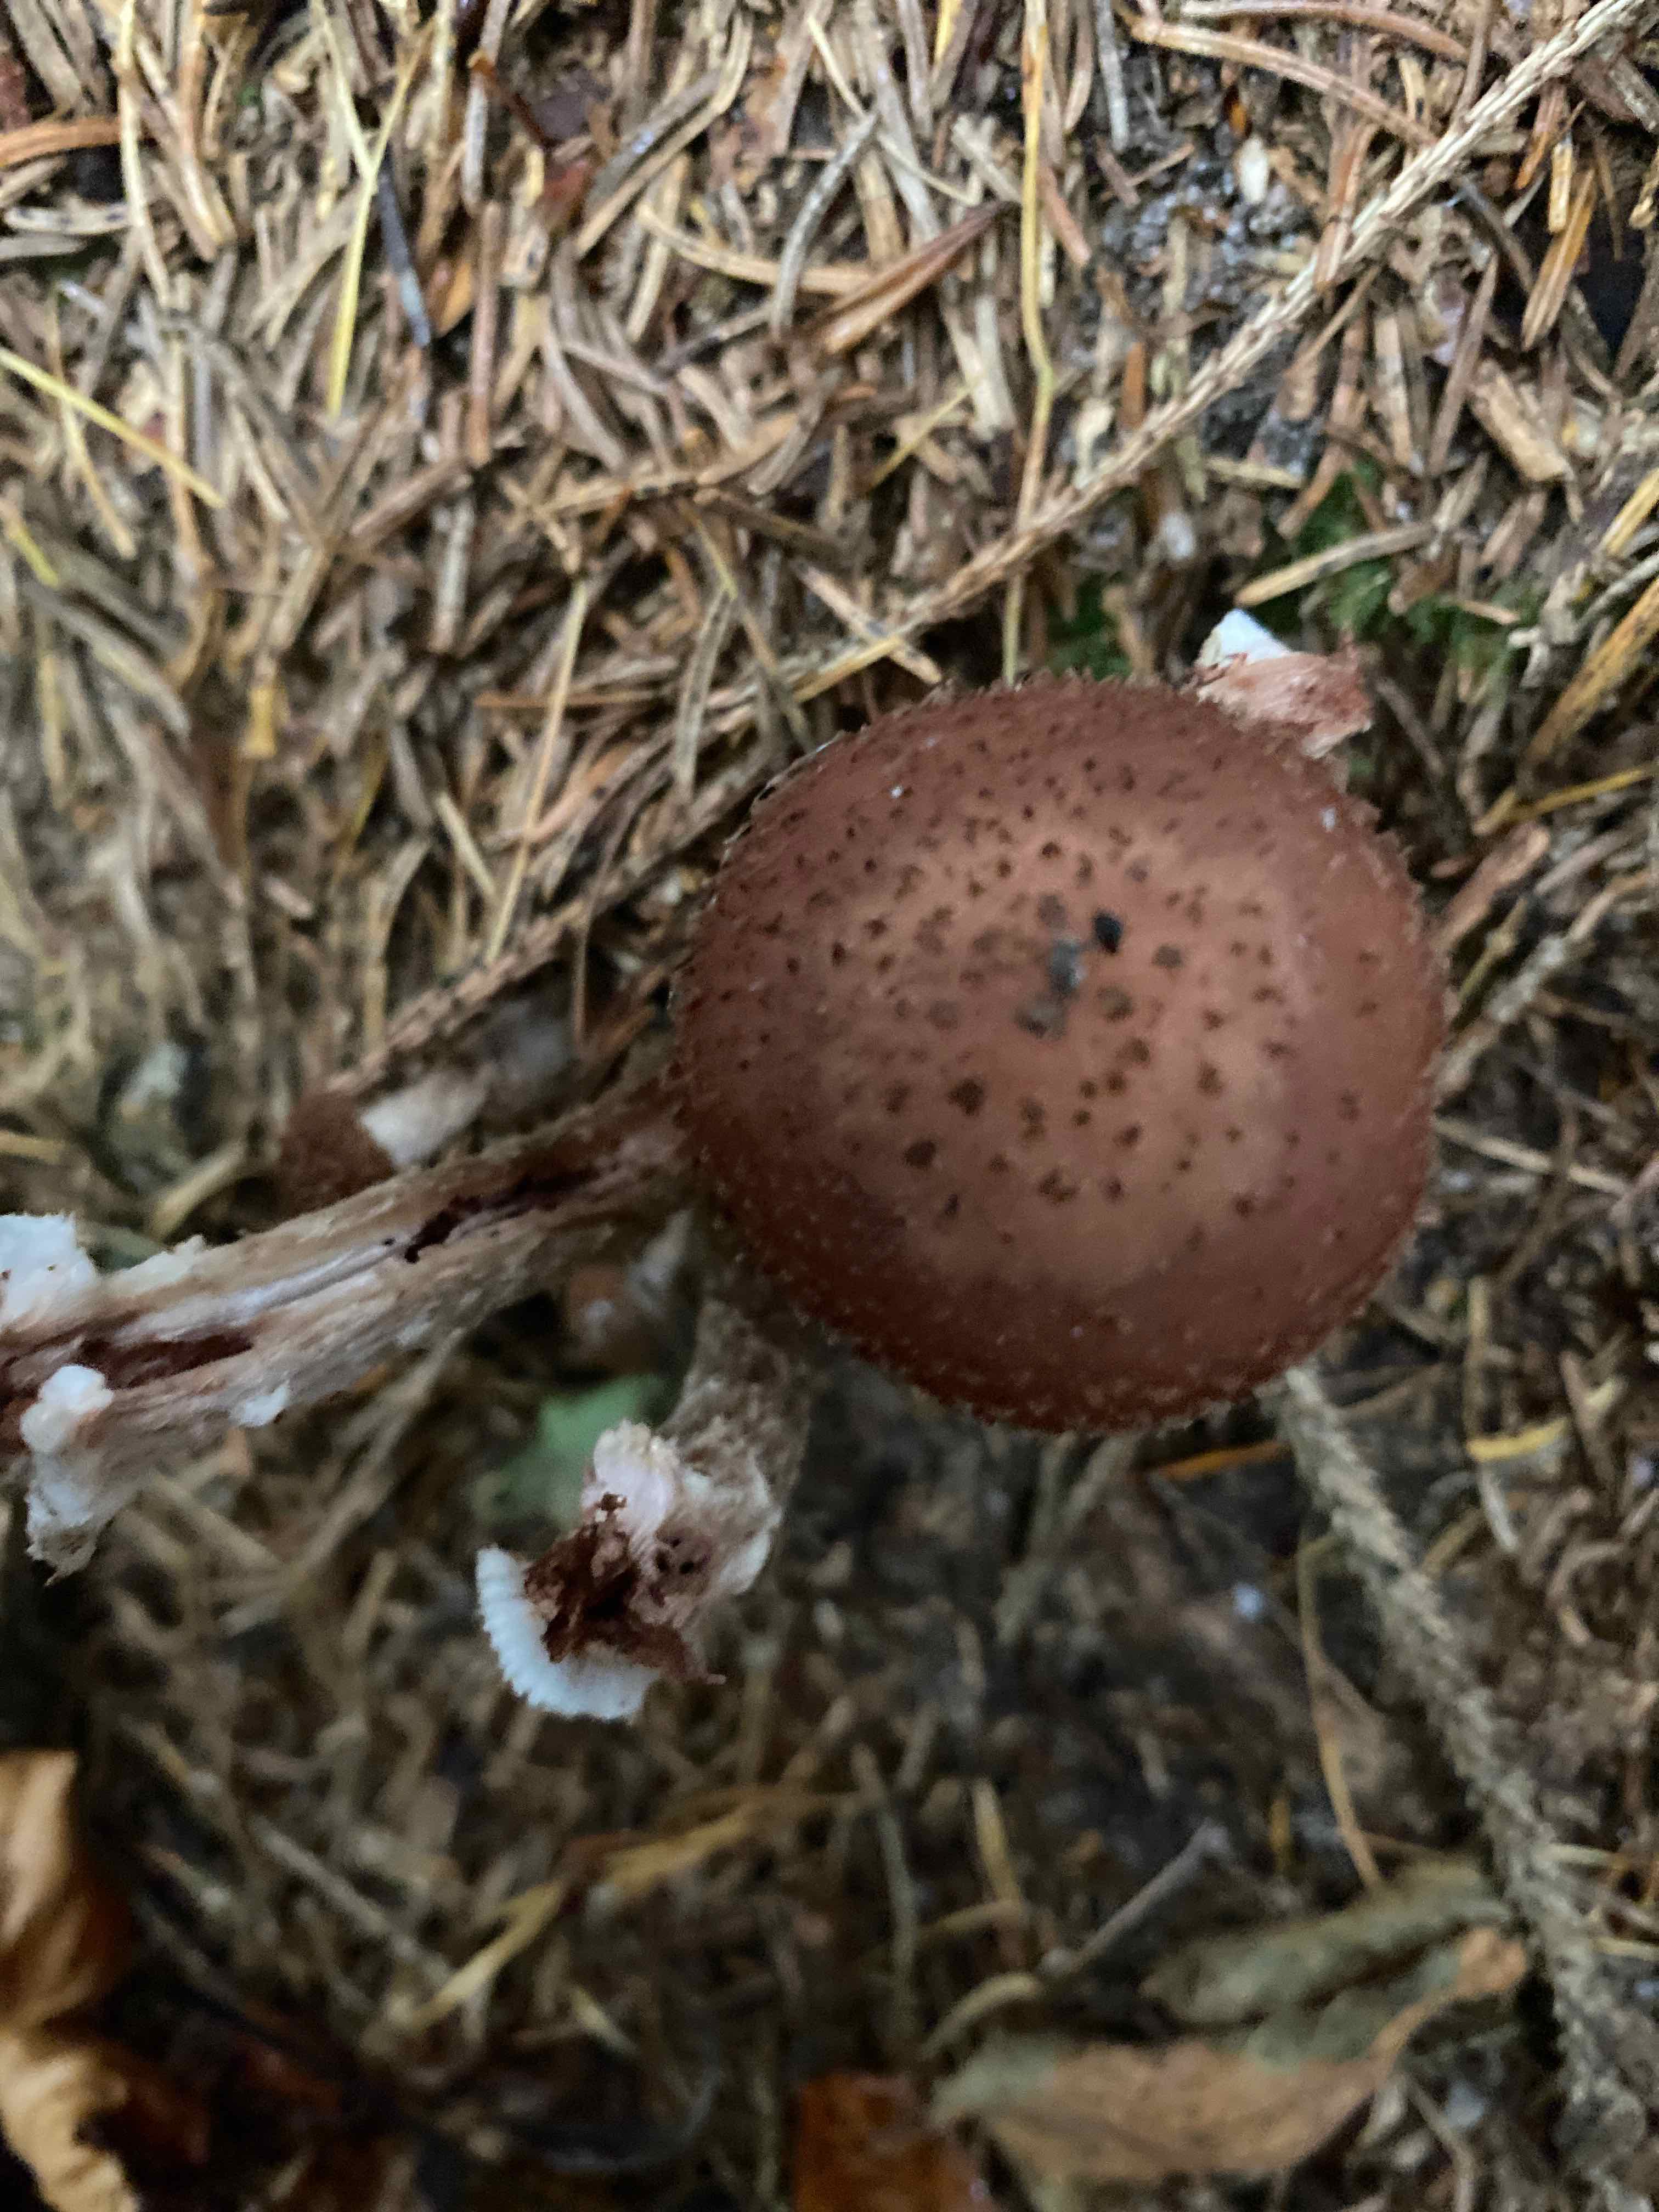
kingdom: Fungi
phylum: Basidiomycota
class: Agaricomycetes
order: Agaricales
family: Physalacriaceae
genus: Armillaria
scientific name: Armillaria ostoyae
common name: mørk honningsvamp
